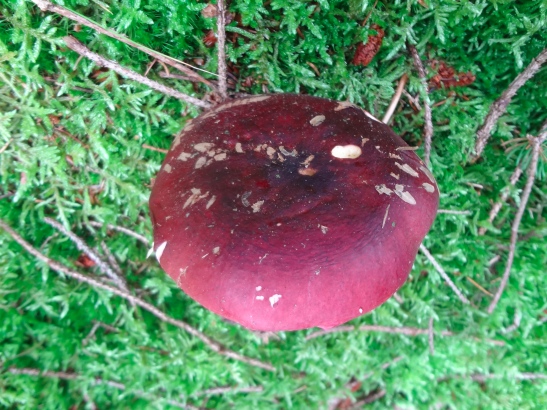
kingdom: Fungi
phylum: Basidiomycota
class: Agaricomycetes
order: Russulales
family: Russulaceae
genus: Russula
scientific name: Russula xerampelina
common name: hummer-skørhat
